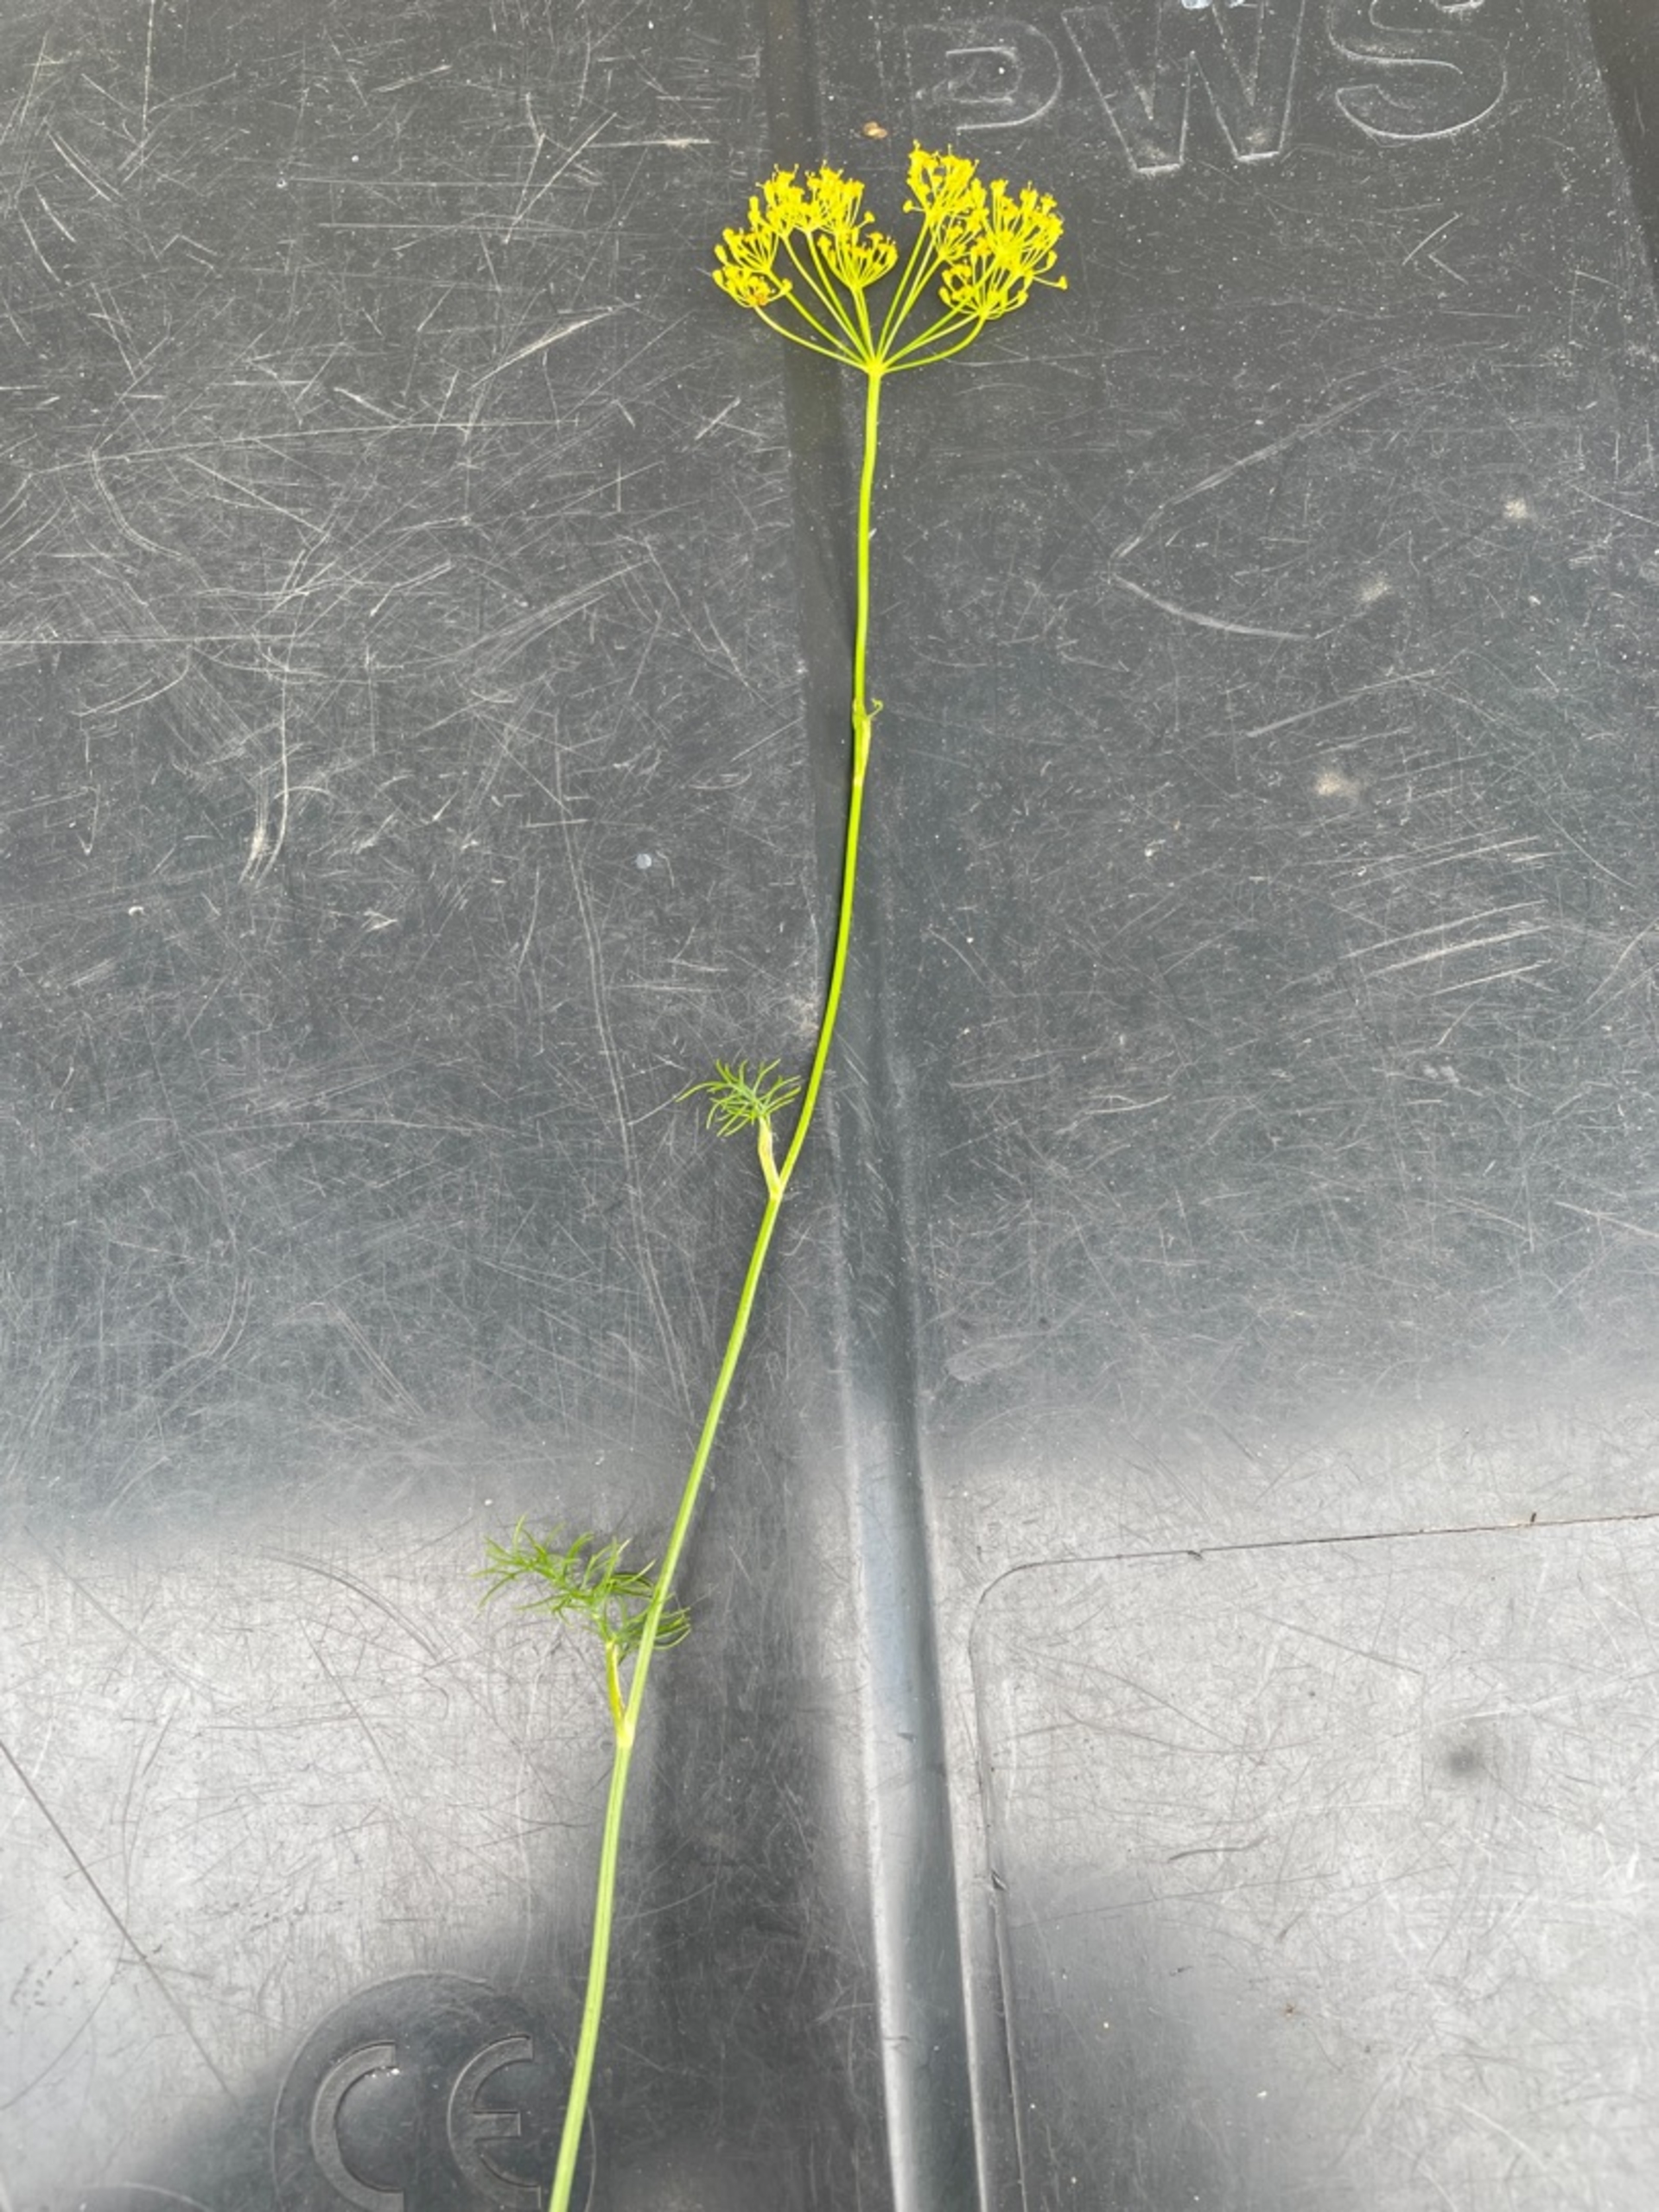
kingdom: Plantae
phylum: Tracheophyta
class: Magnoliopsida
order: Apiales
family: Apiaceae
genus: Anethum
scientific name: Anethum graveolens
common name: Dild
